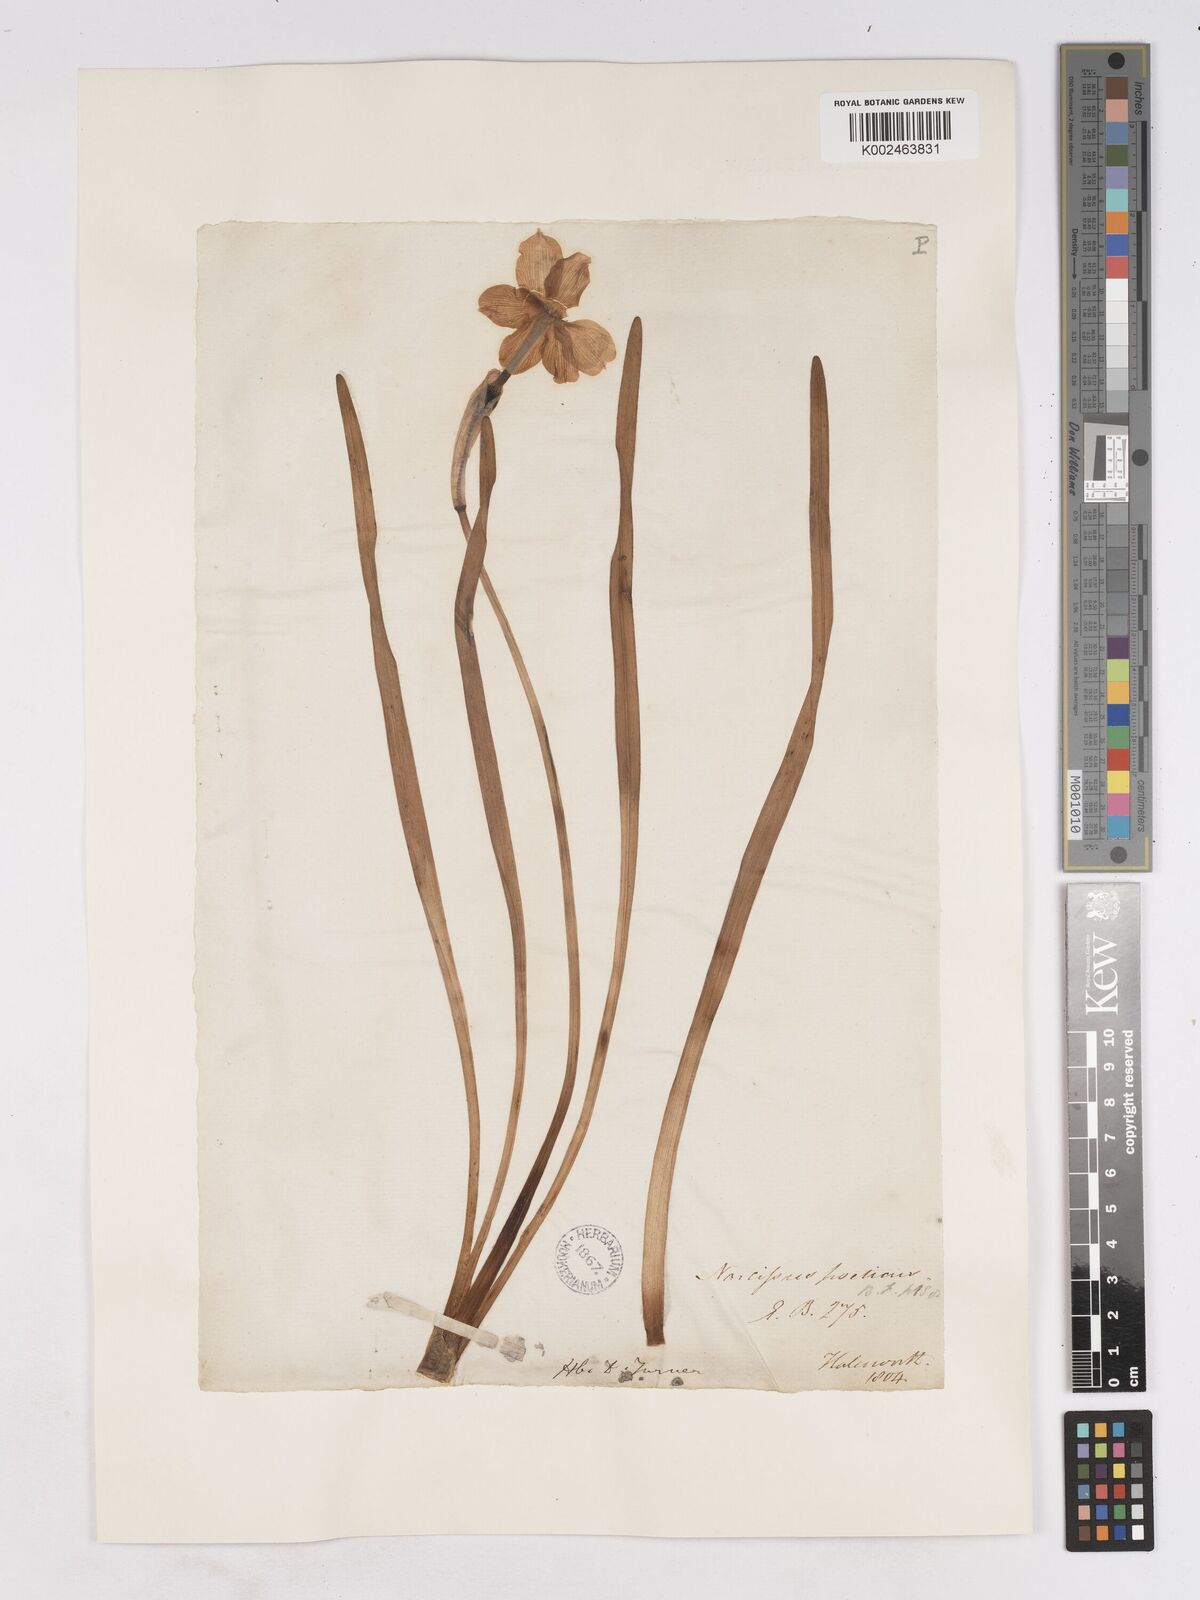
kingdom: Plantae
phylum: Tracheophyta
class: Liliopsida
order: Asparagales
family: Amaryllidaceae
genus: Narcissus
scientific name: Narcissus
